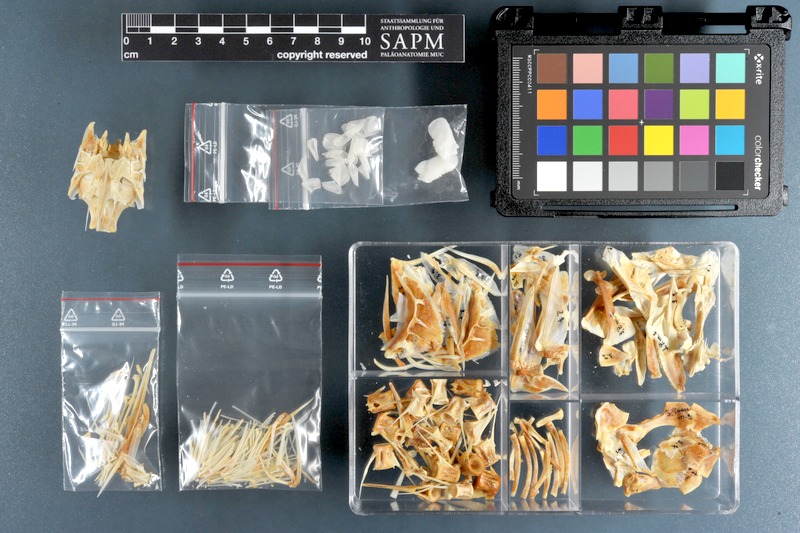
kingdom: Animalia
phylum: Chordata
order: Perciformes
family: Sciaenidae
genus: Pseudotolithus
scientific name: Pseudotolithus senegalensis
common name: Cassava croaker
